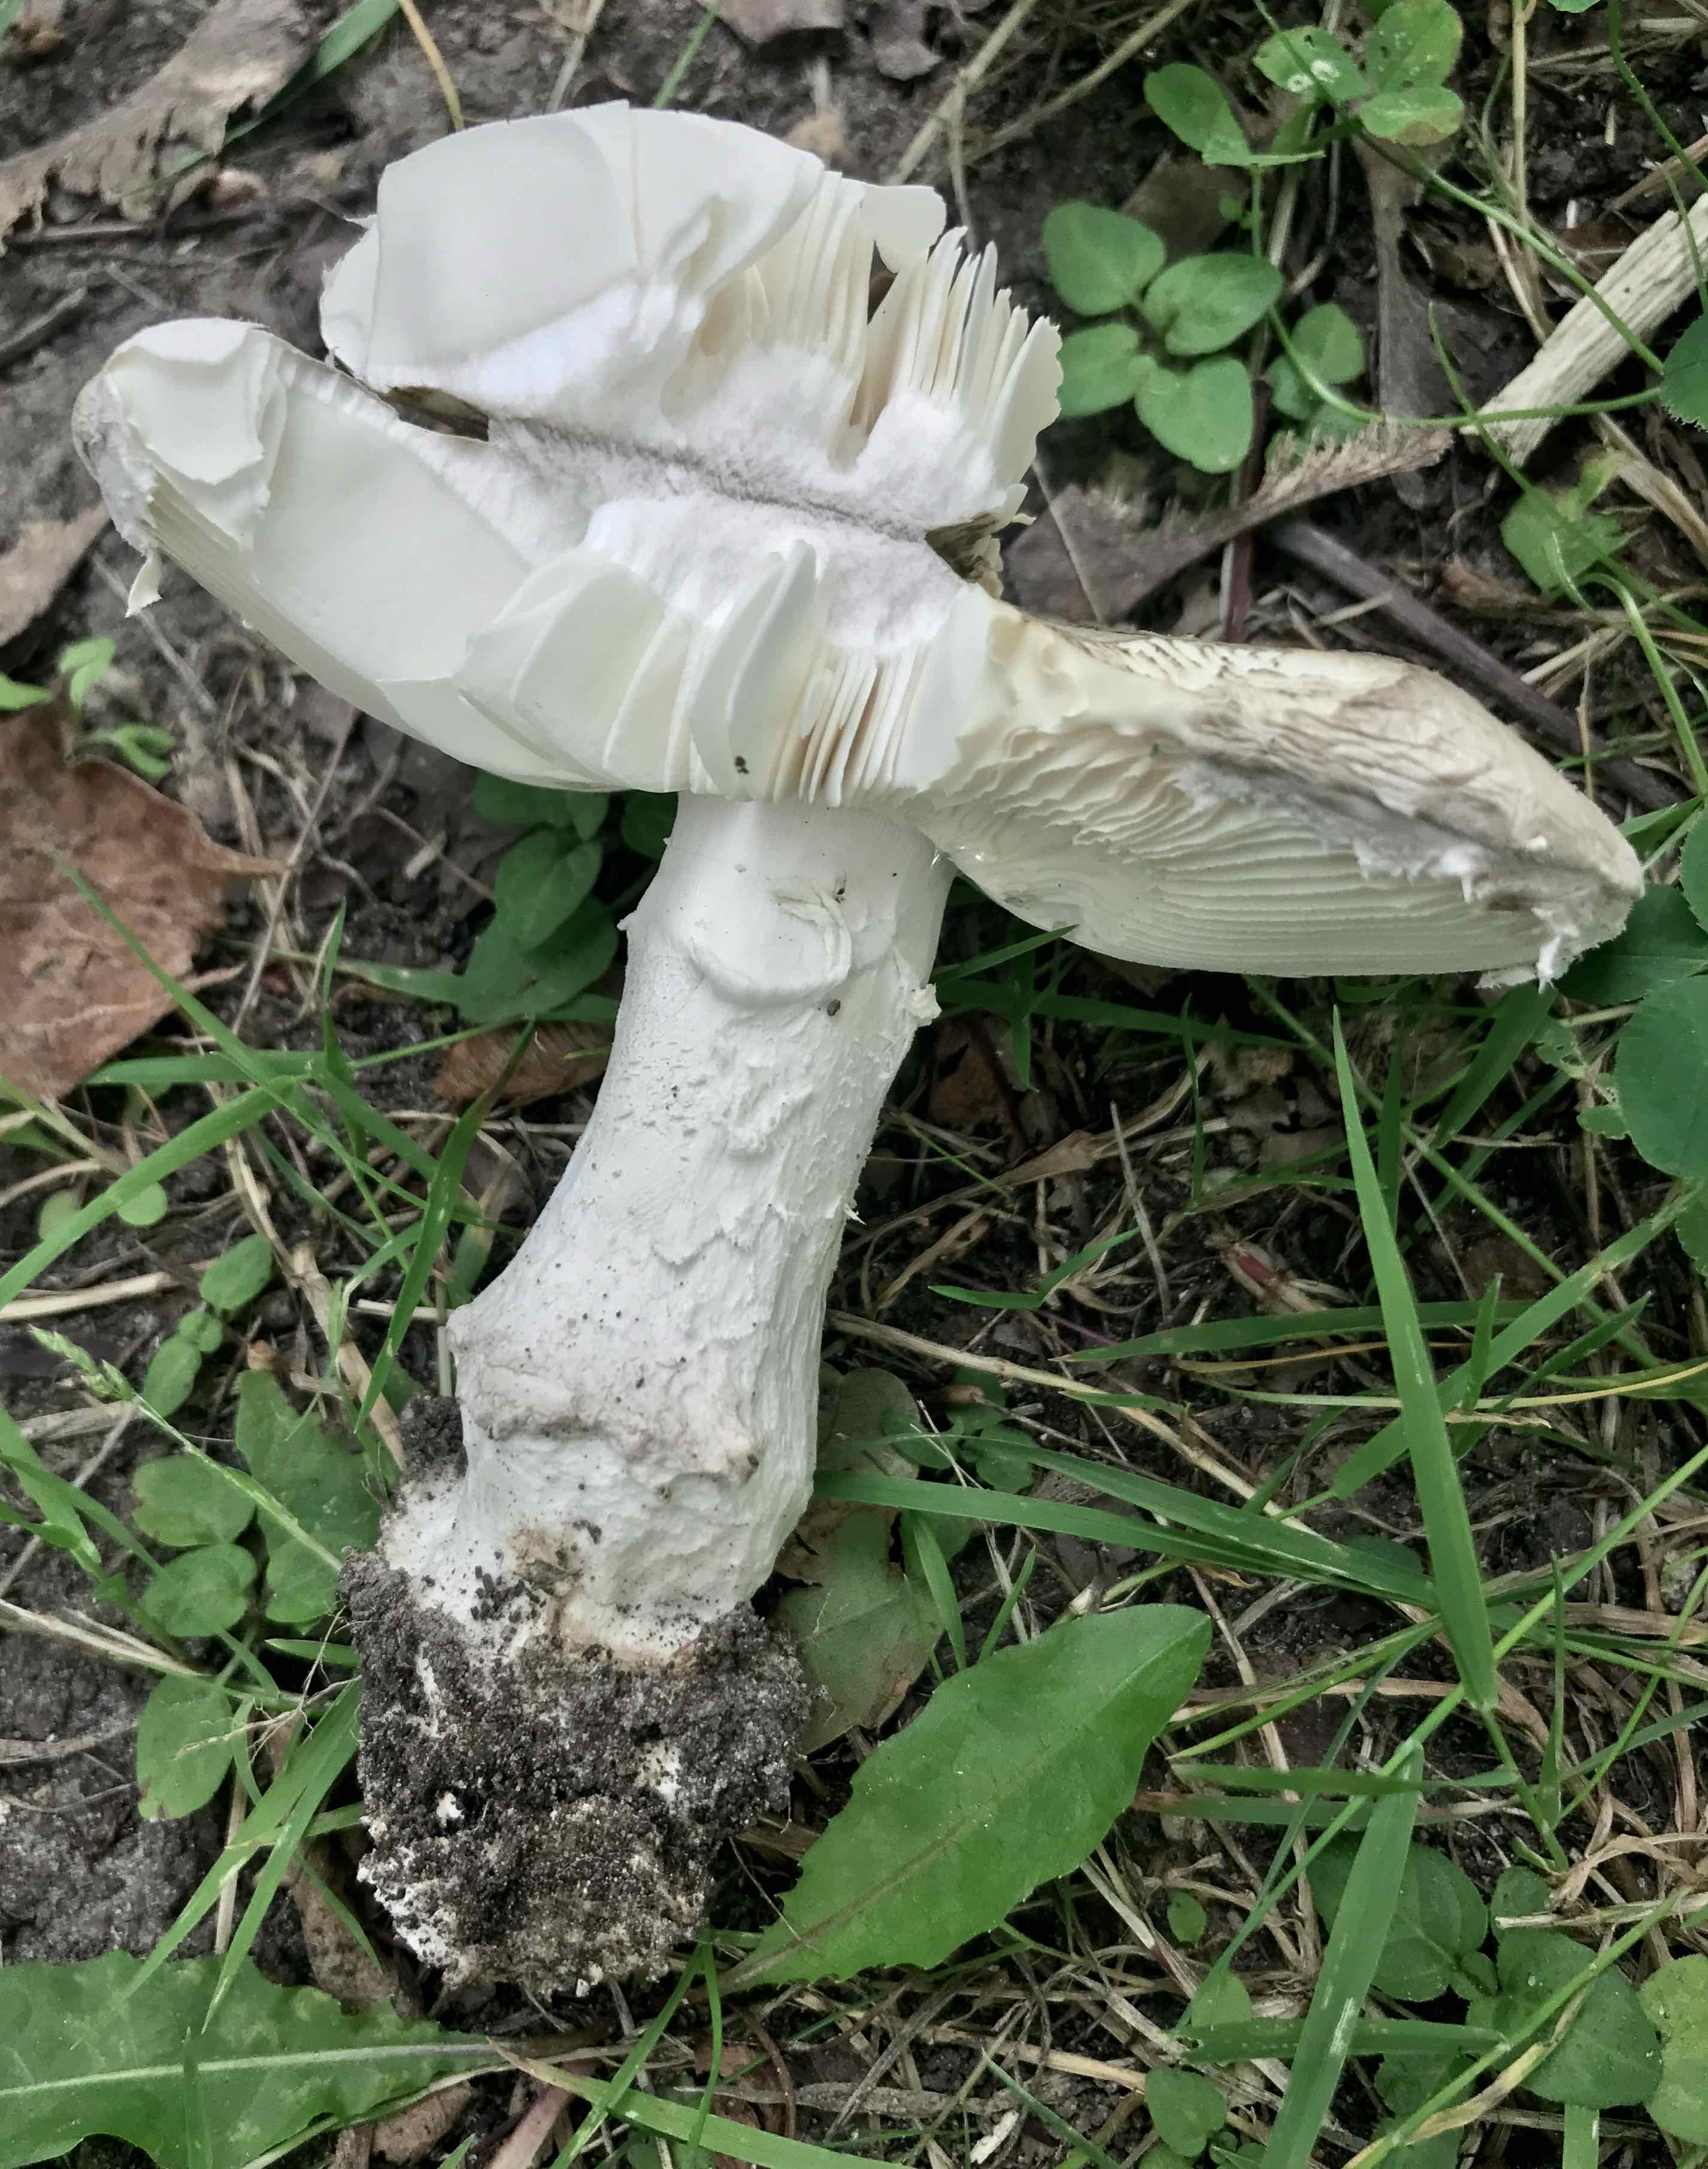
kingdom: Fungi
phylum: Basidiomycota
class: Agaricomycetes
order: Agaricales
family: Amanitaceae
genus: Amanita
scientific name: Amanita
